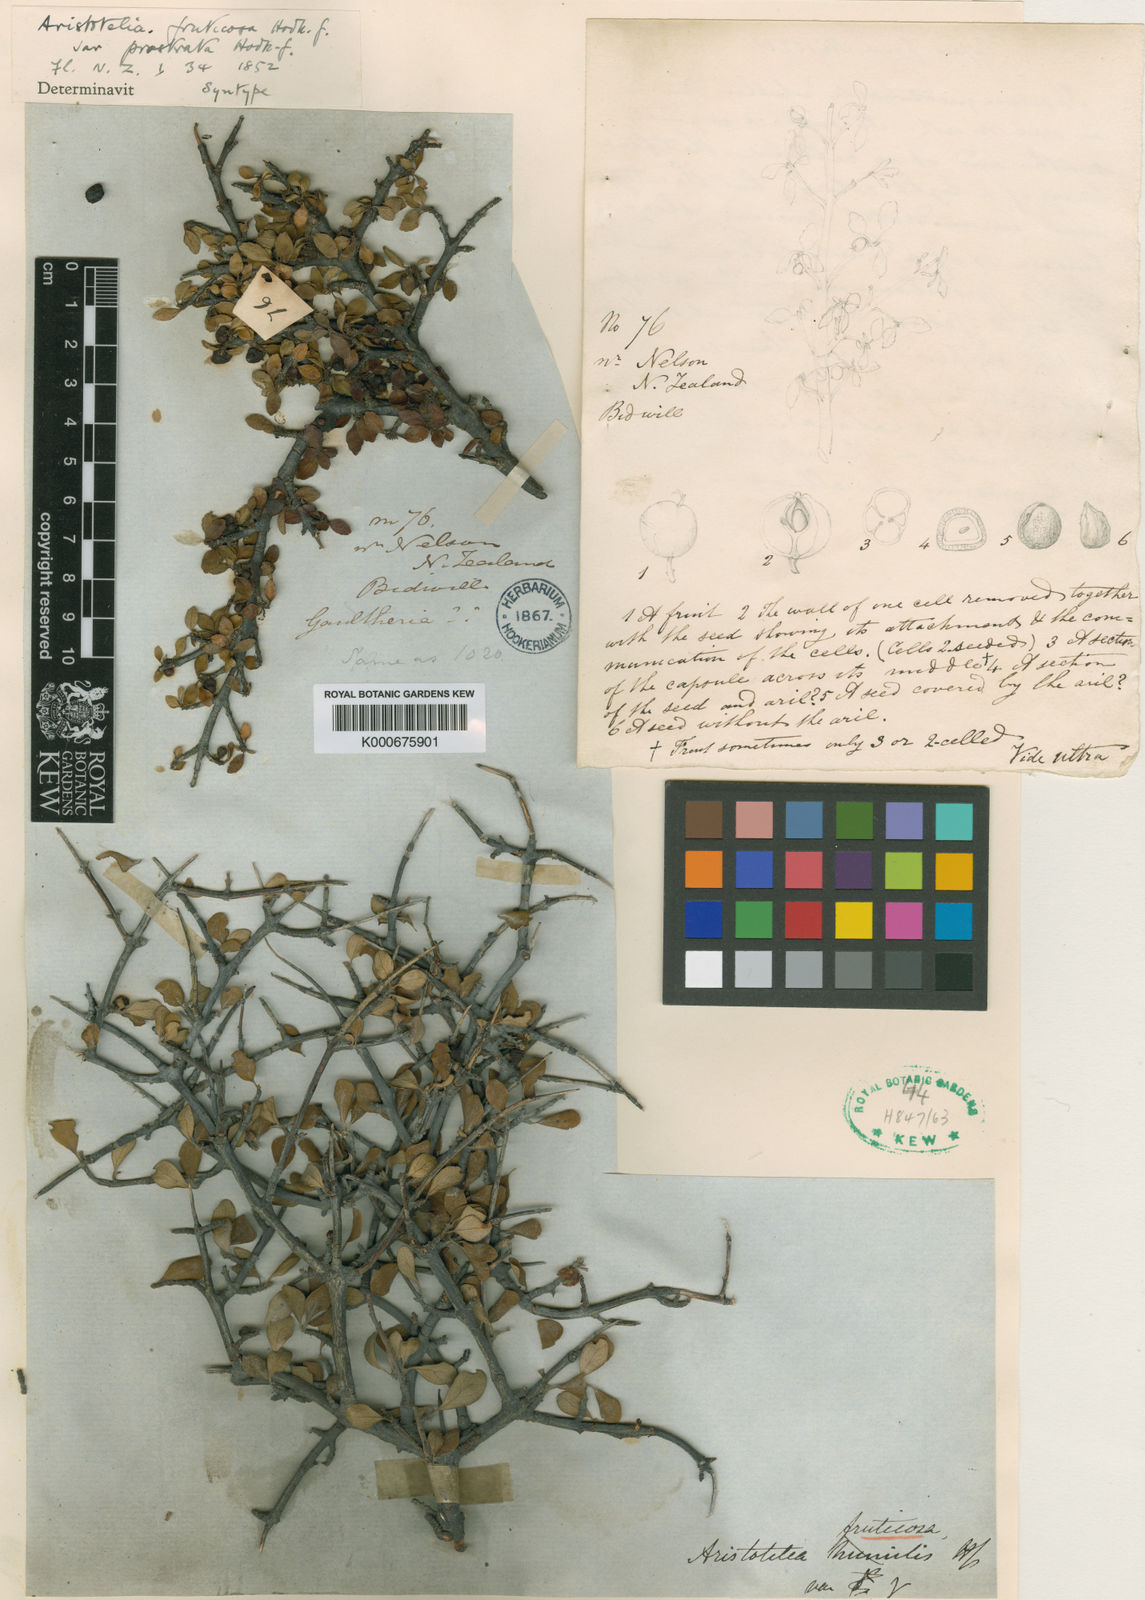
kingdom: Plantae
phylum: Tracheophyta
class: Magnoliopsida
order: Oxalidales
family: Elaeocarpaceae
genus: Aristotelia
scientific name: Aristotelia fruticosa
